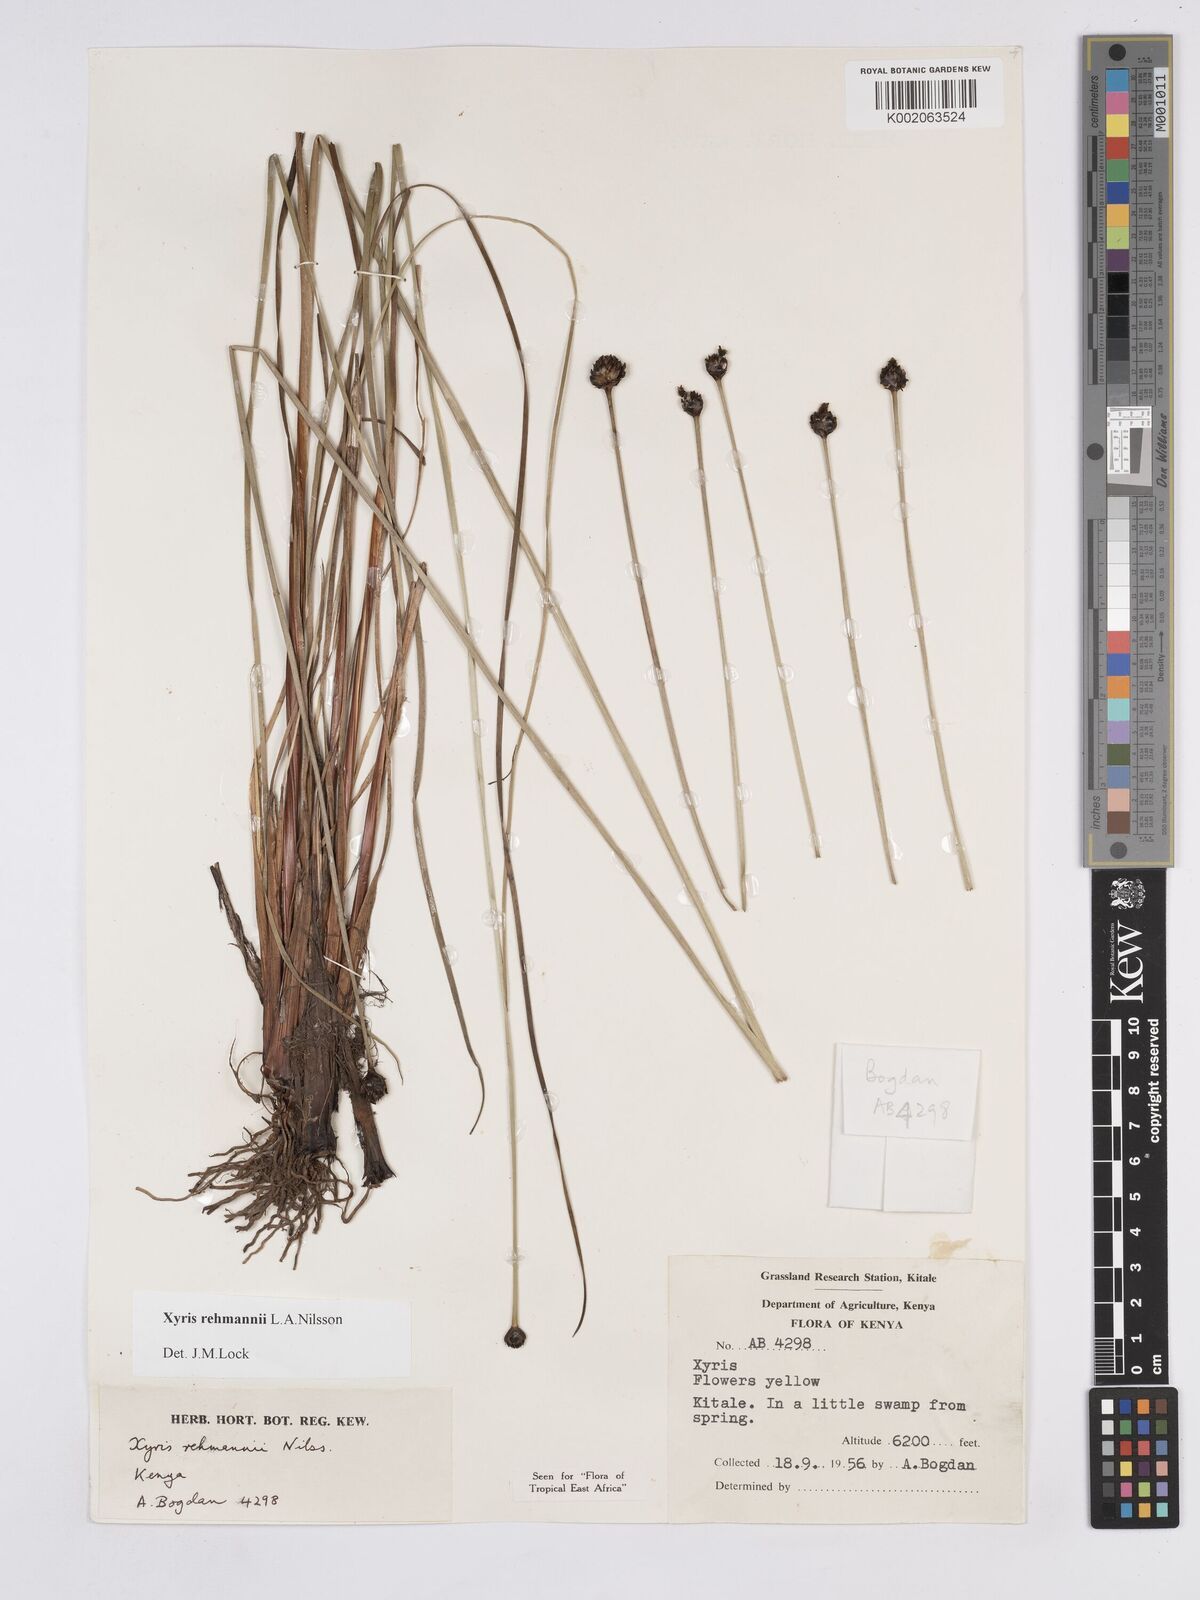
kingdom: Plantae
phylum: Tracheophyta
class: Liliopsida
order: Poales
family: Xyridaceae
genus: Xyris
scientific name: Xyris rehmannii
